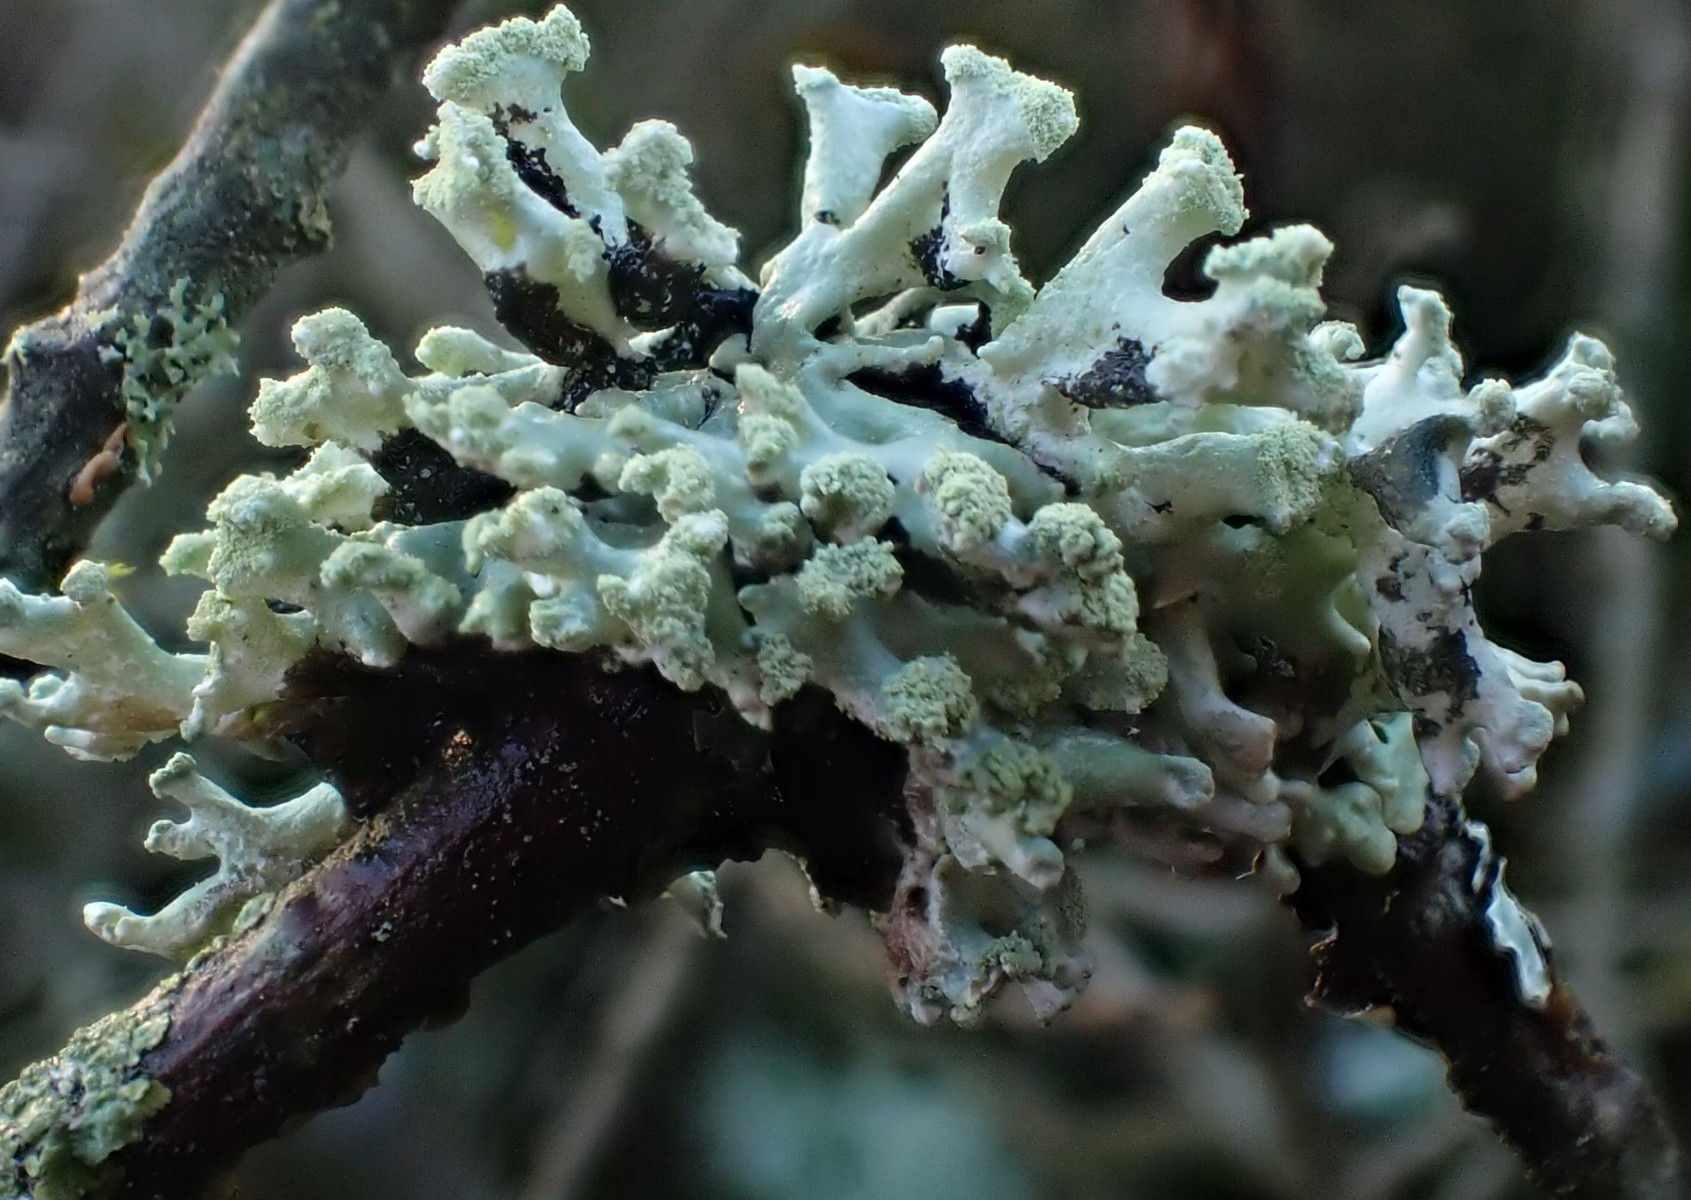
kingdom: Fungi
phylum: Ascomycota
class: Lecanoromycetes
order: Lecanorales
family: Parmeliaceae
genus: Hypogymnia
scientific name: Hypogymnia tubulosa
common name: finger-kvistlav
